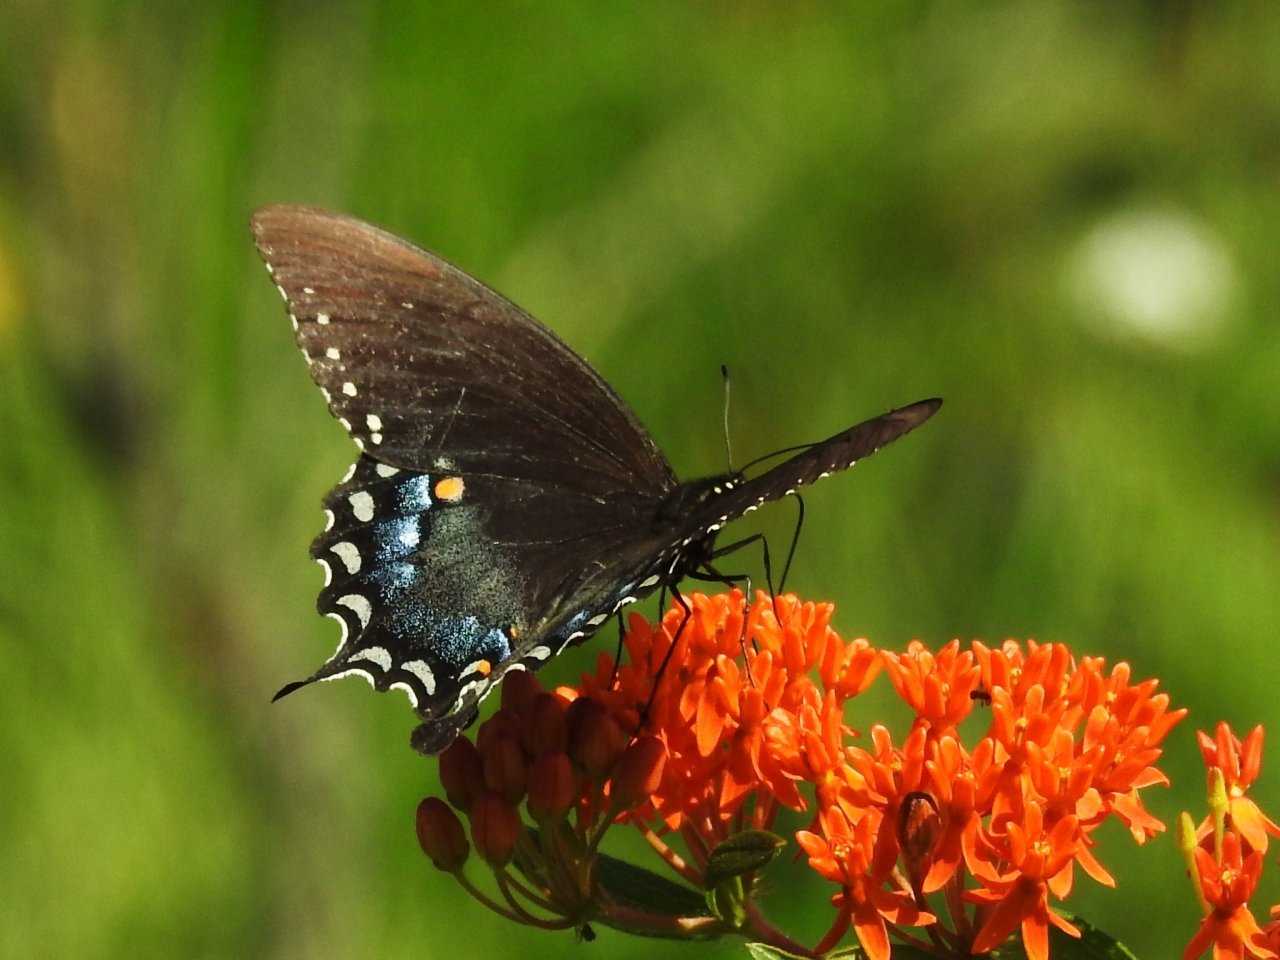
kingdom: Animalia
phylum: Arthropoda
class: Insecta
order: Lepidoptera
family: Papilionidae
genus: Pterourus
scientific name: Pterourus troilus
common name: Spicebush Swallowtail
